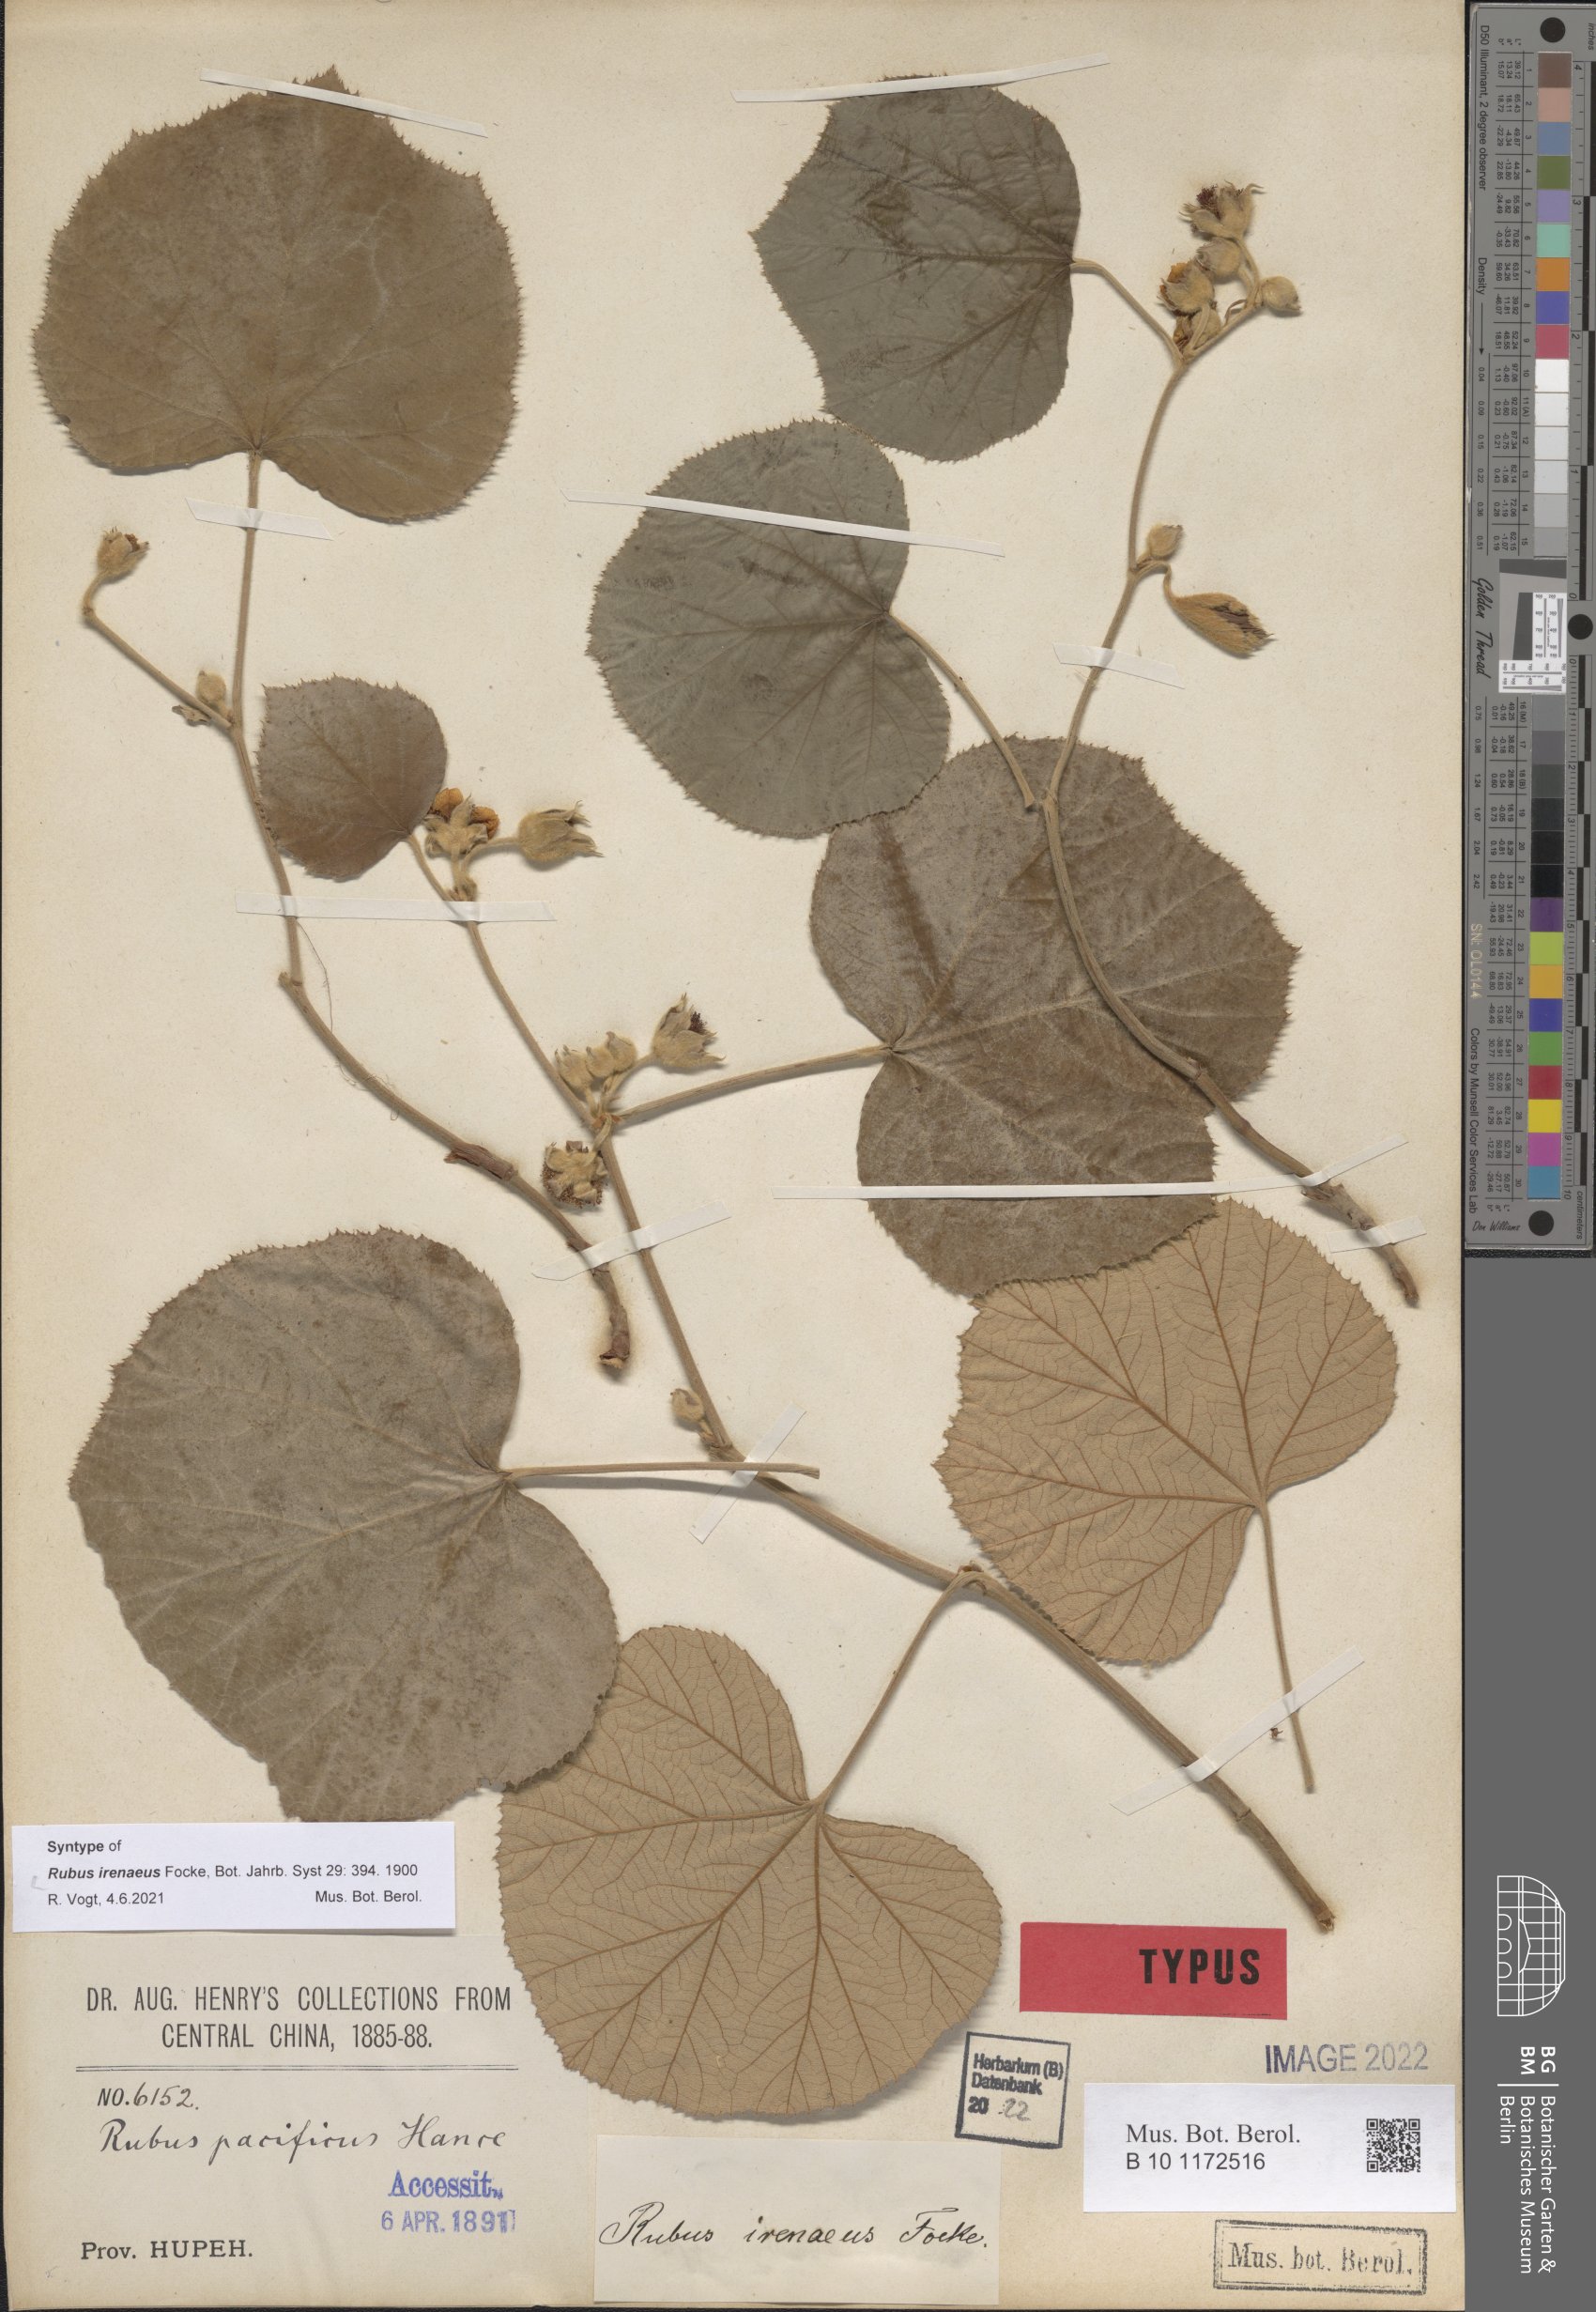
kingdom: Plantae
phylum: Tracheophyta
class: Magnoliopsida
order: Rosales
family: Rosaceae
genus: Rubus
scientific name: Rubus irenaeus
